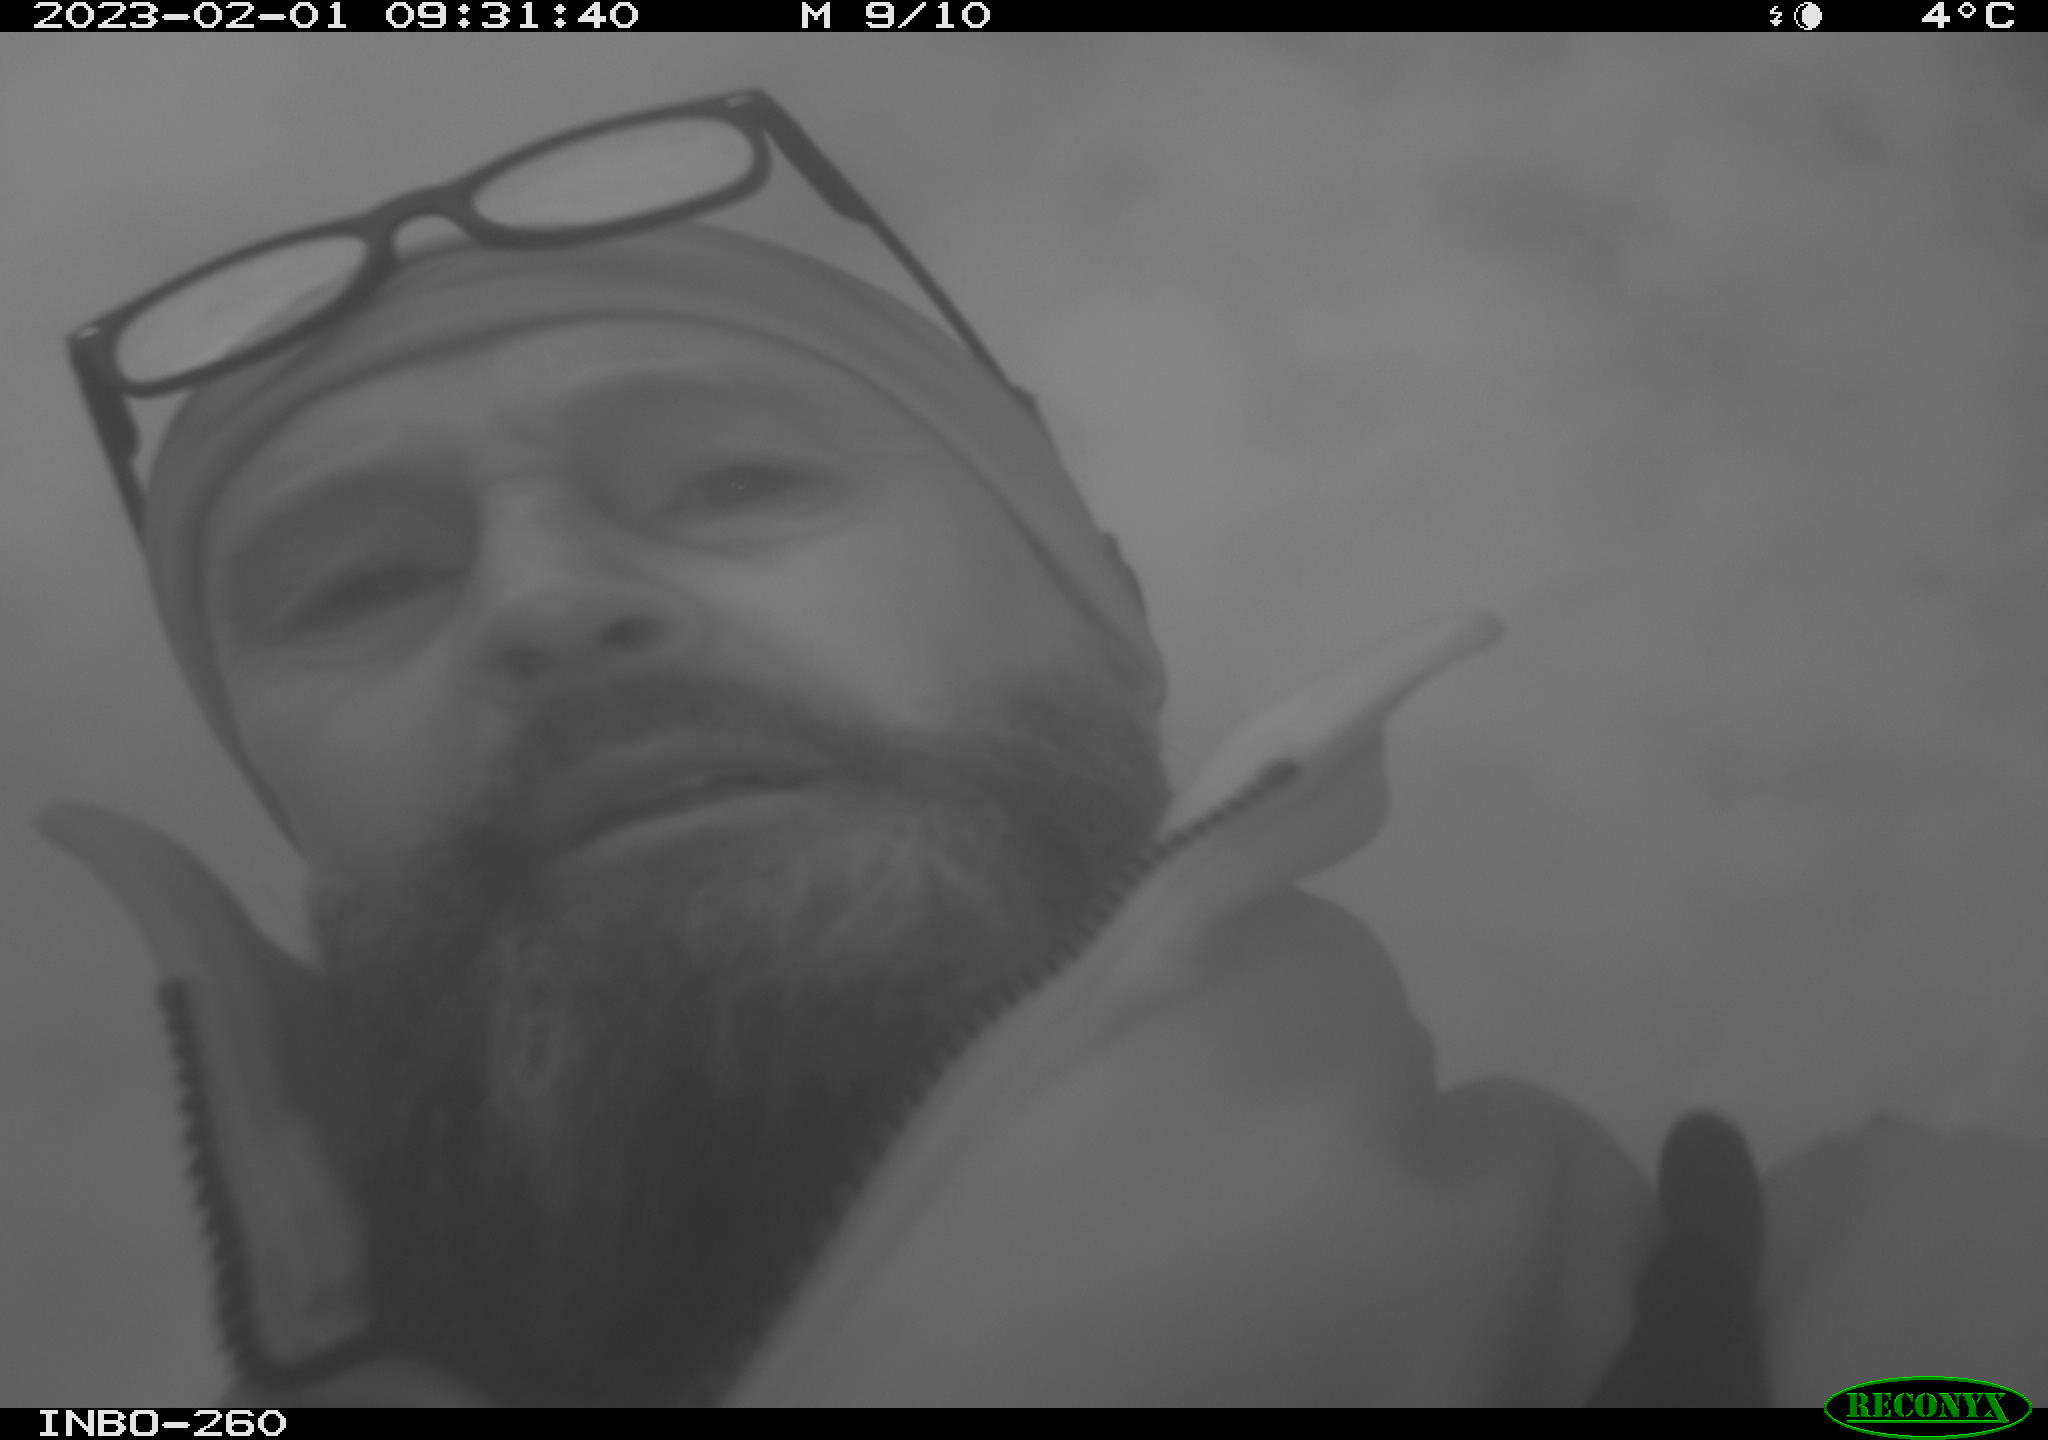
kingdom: Animalia
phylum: Chordata
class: Mammalia
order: Rodentia
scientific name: Rodentia
